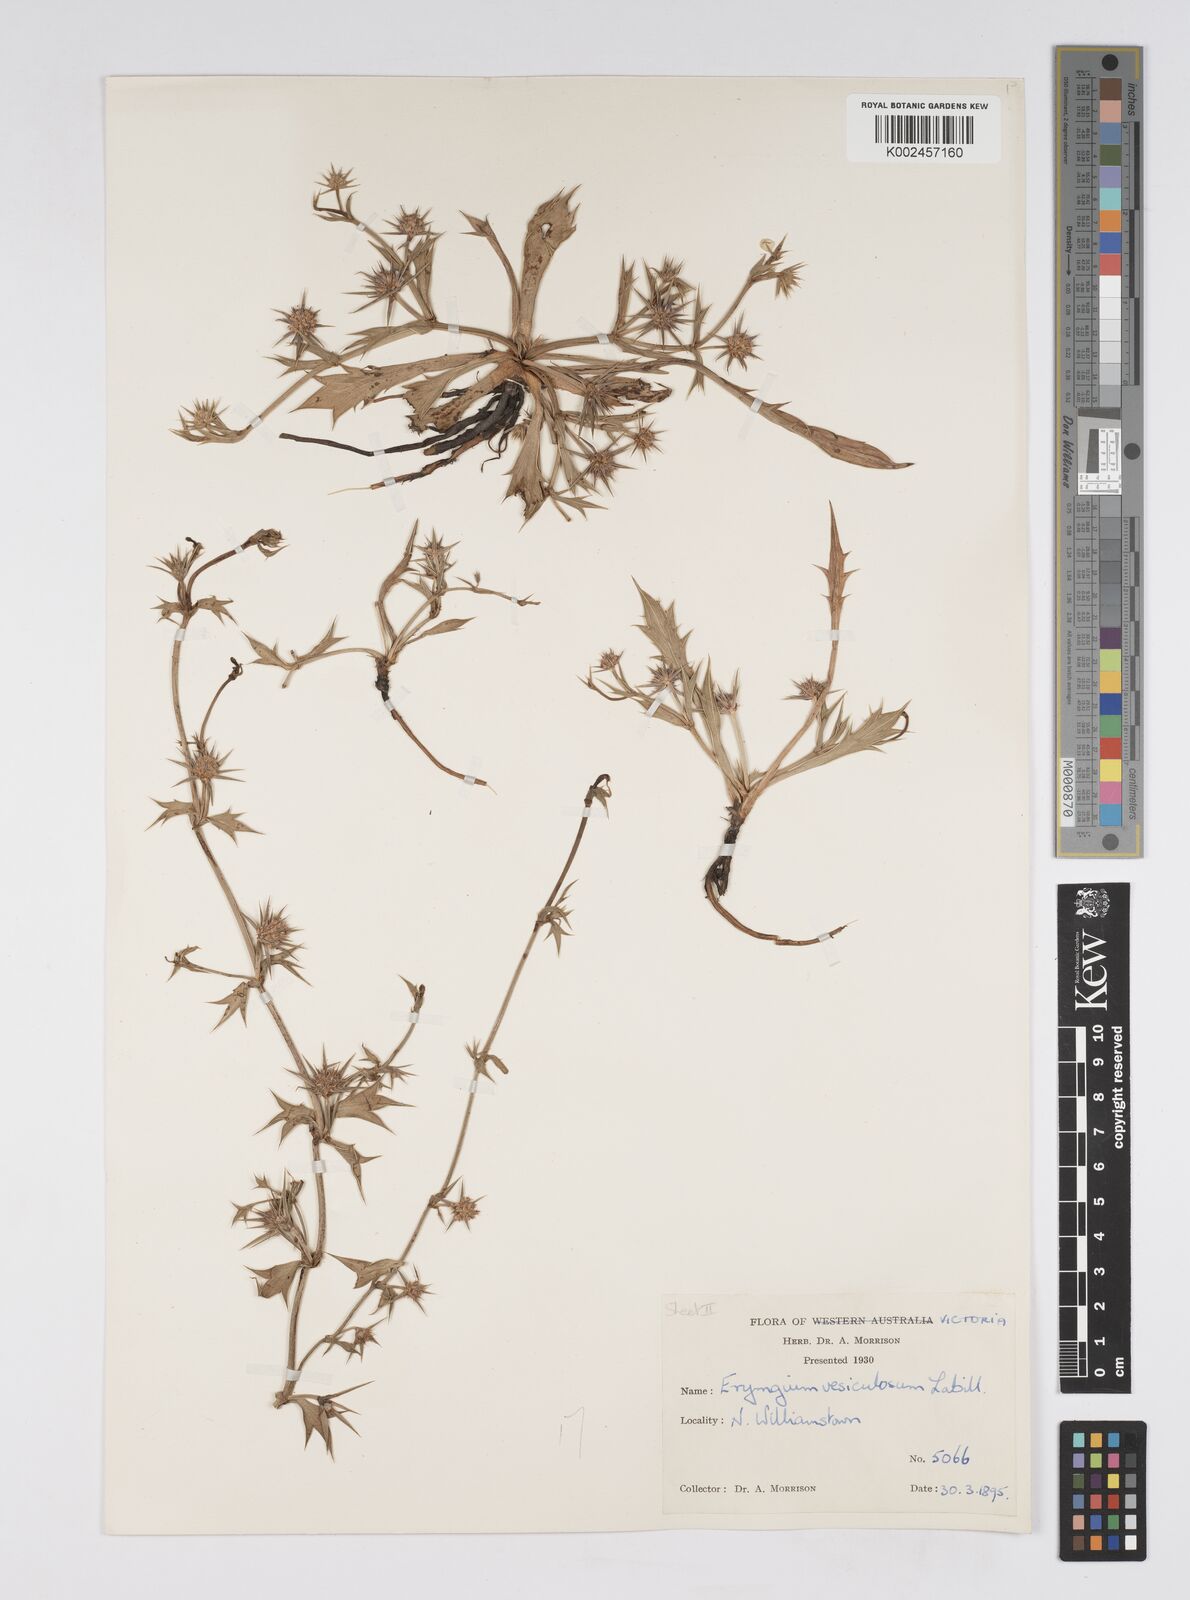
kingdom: Plantae
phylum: Tracheophyta
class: Magnoliopsida
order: Apiales
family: Apiaceae
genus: Eryngium
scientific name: Eryngium vesiculosum
